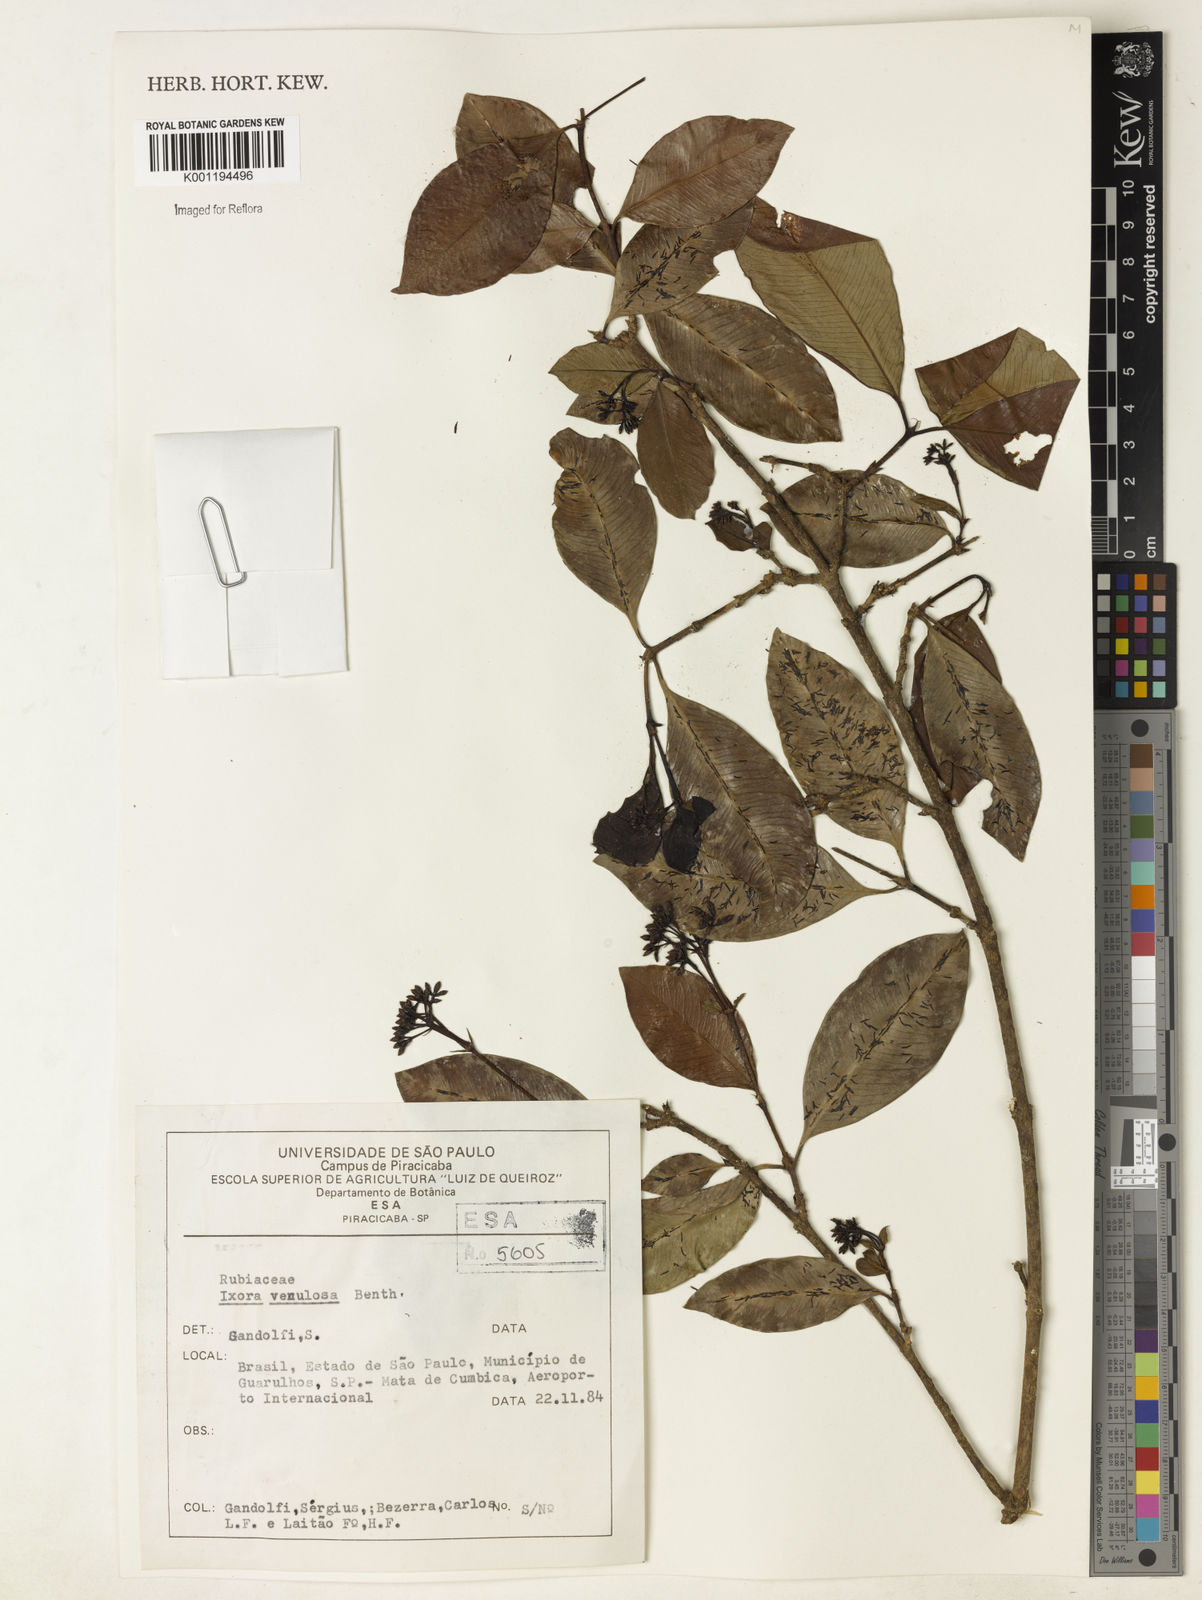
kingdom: Plantae
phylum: Tracheophyta
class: Magnoliopsida
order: Gentianales
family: Rubiaceae
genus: Ixora
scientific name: Ixora venulosa
